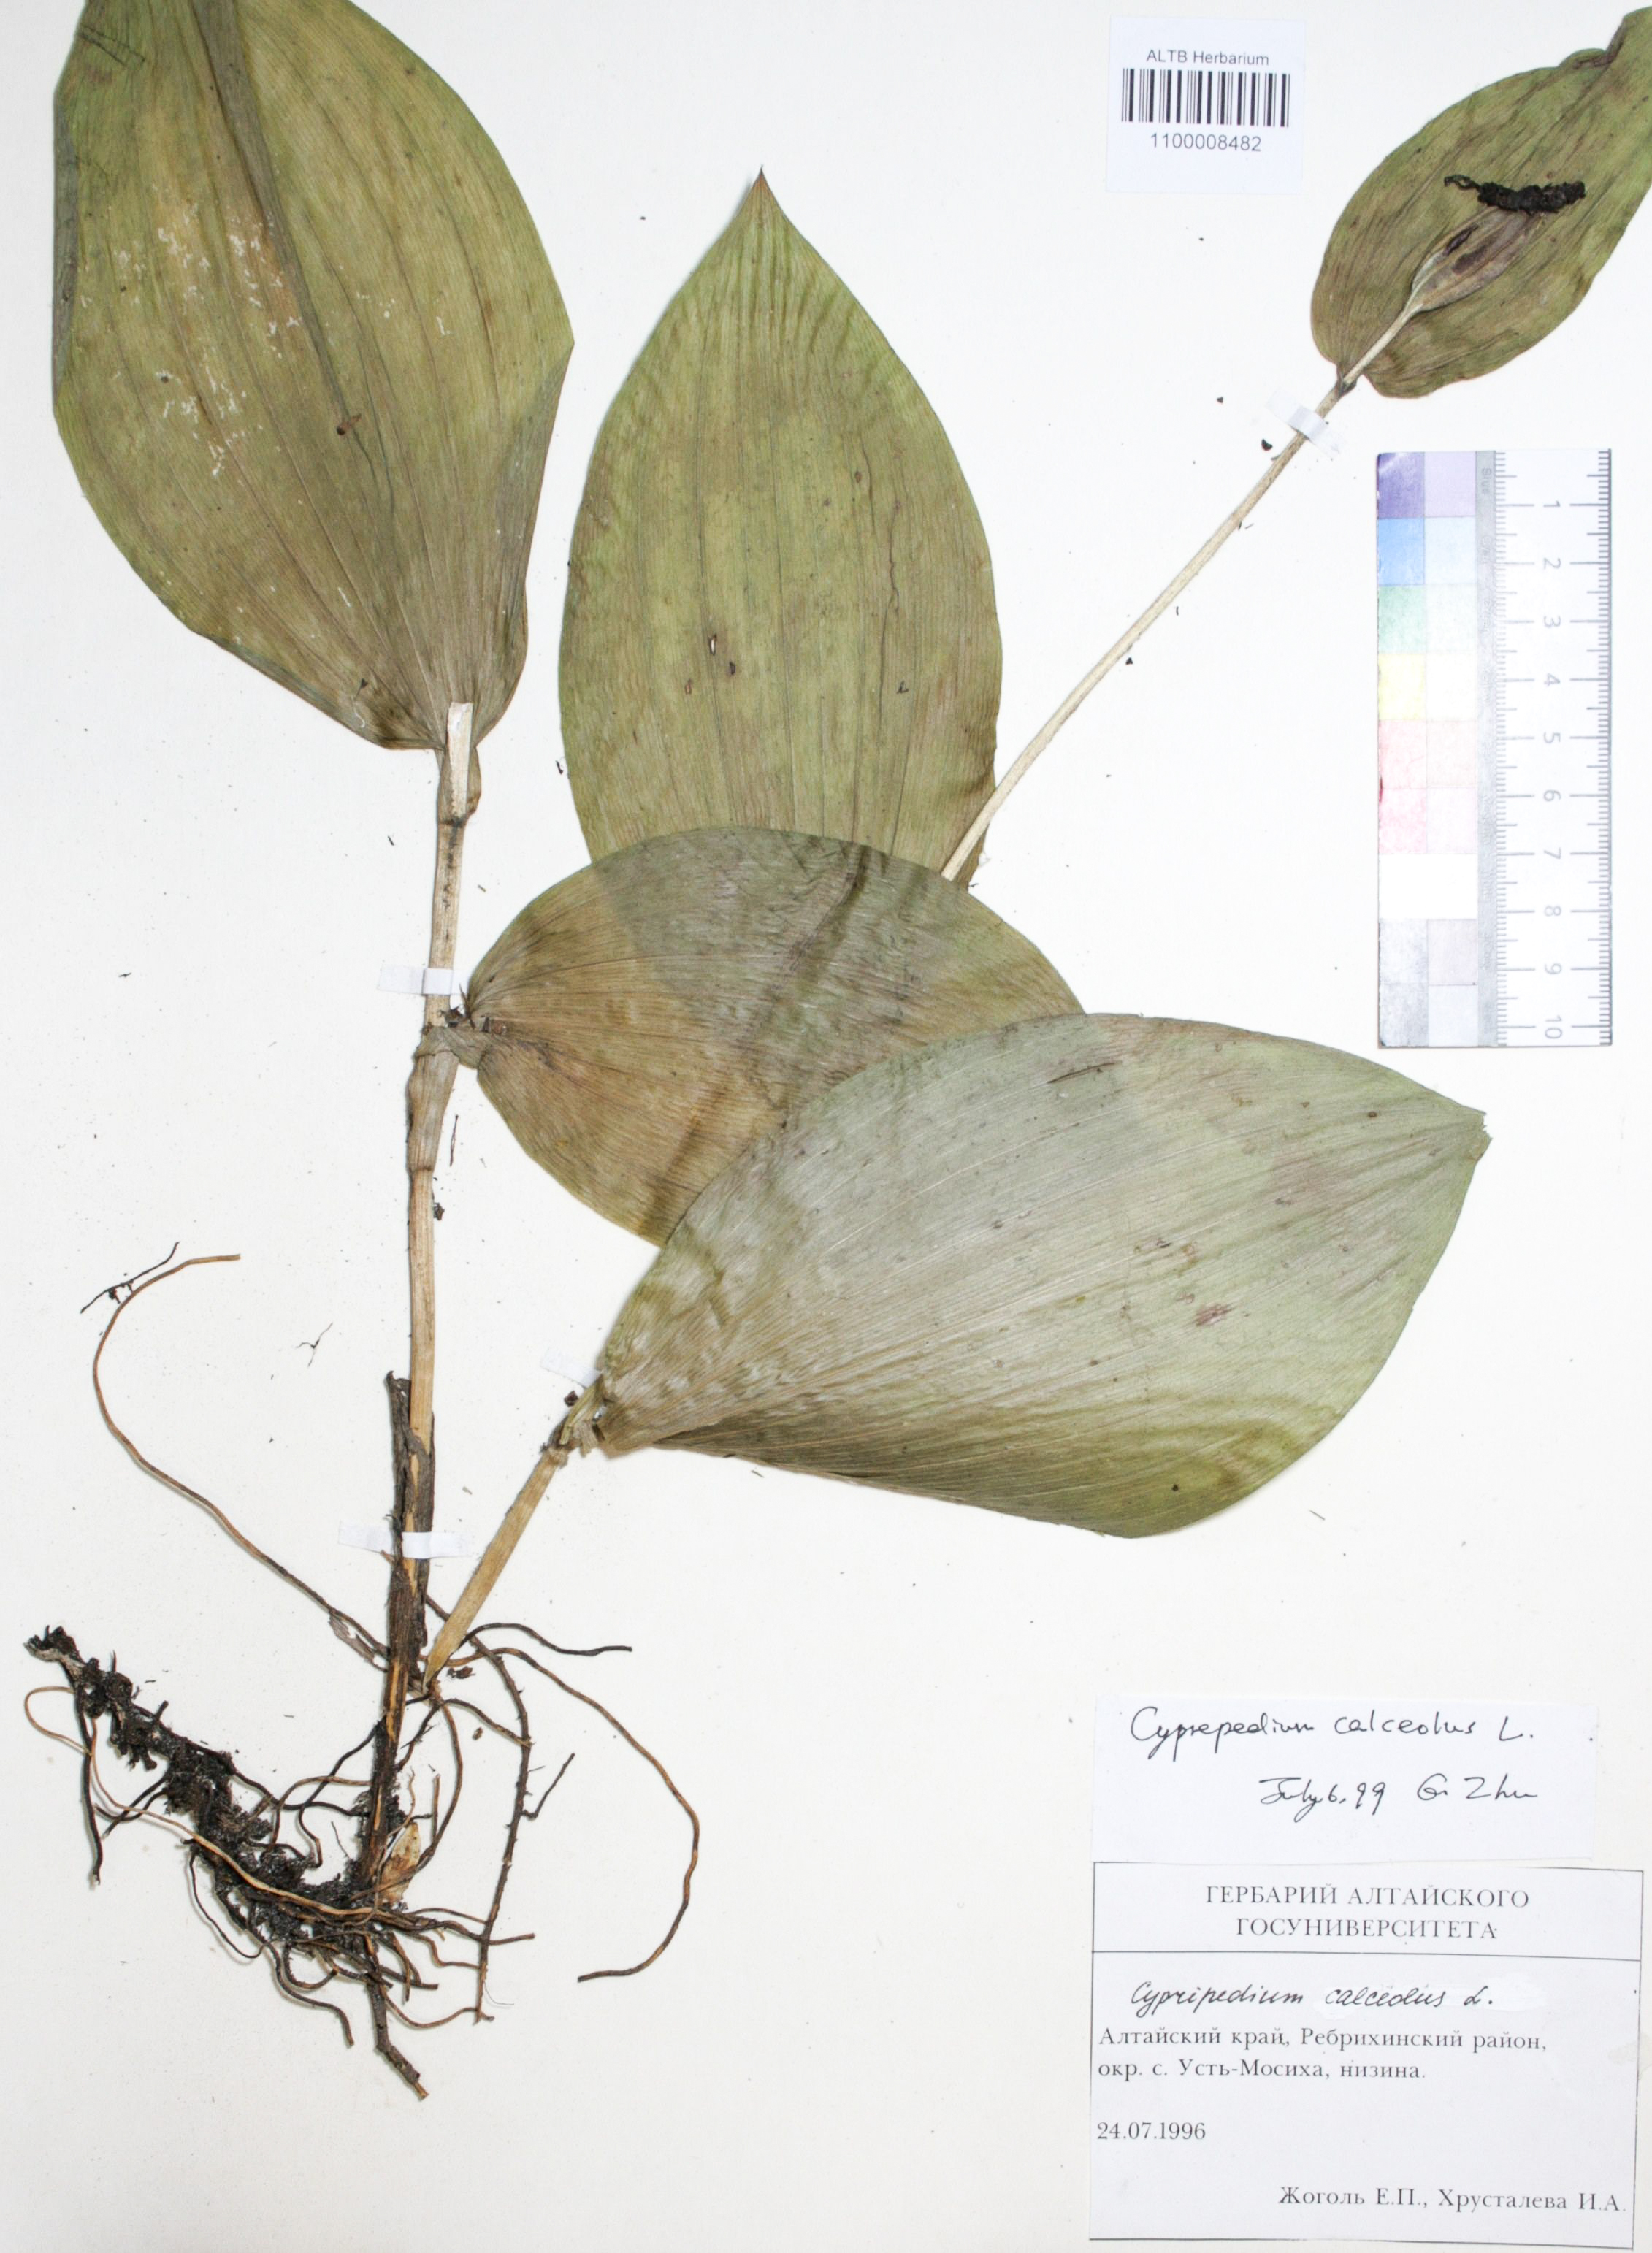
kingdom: Plantae
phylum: Tracheophyta
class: Liliopsida
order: Asparagales
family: Orchidaceae
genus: Cypripedium
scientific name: Cypripedium calceolus
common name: Lady's-slipper
